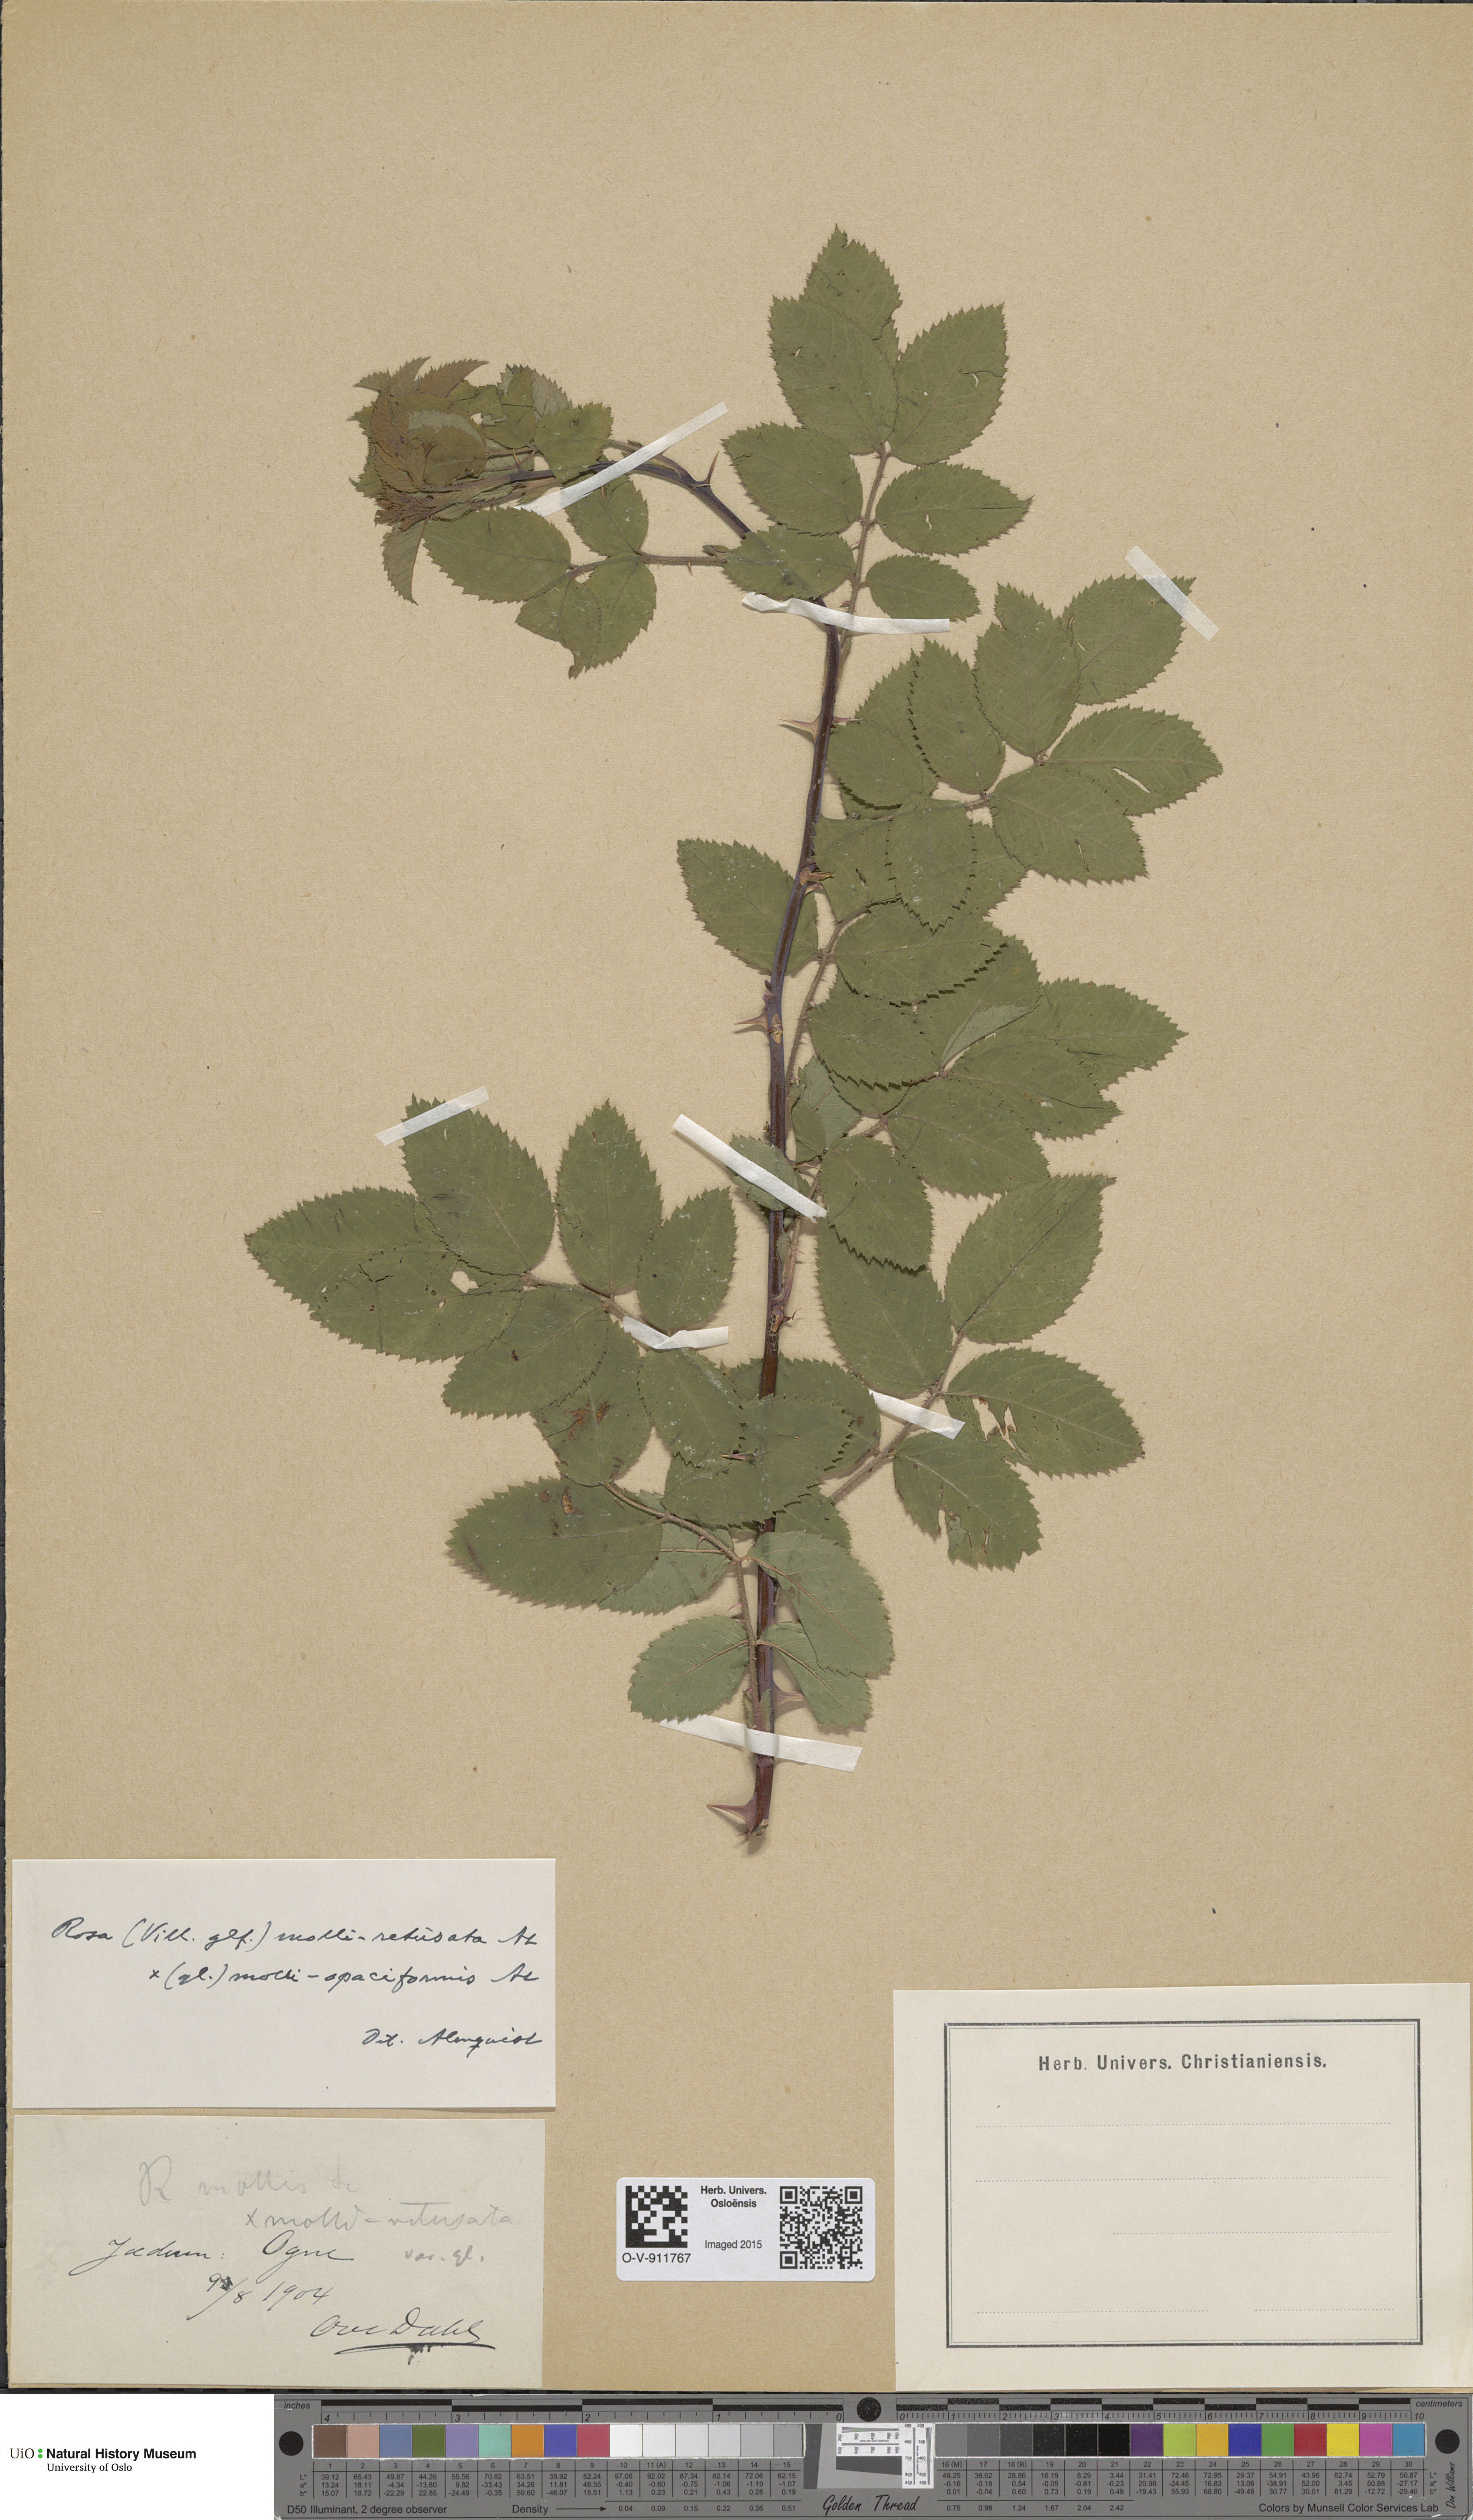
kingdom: Plantae
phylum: Tracheophyta
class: Magnoliopsida
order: Rosales
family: Rosaceae
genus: Rosa
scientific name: Rosa mollis
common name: Rose
